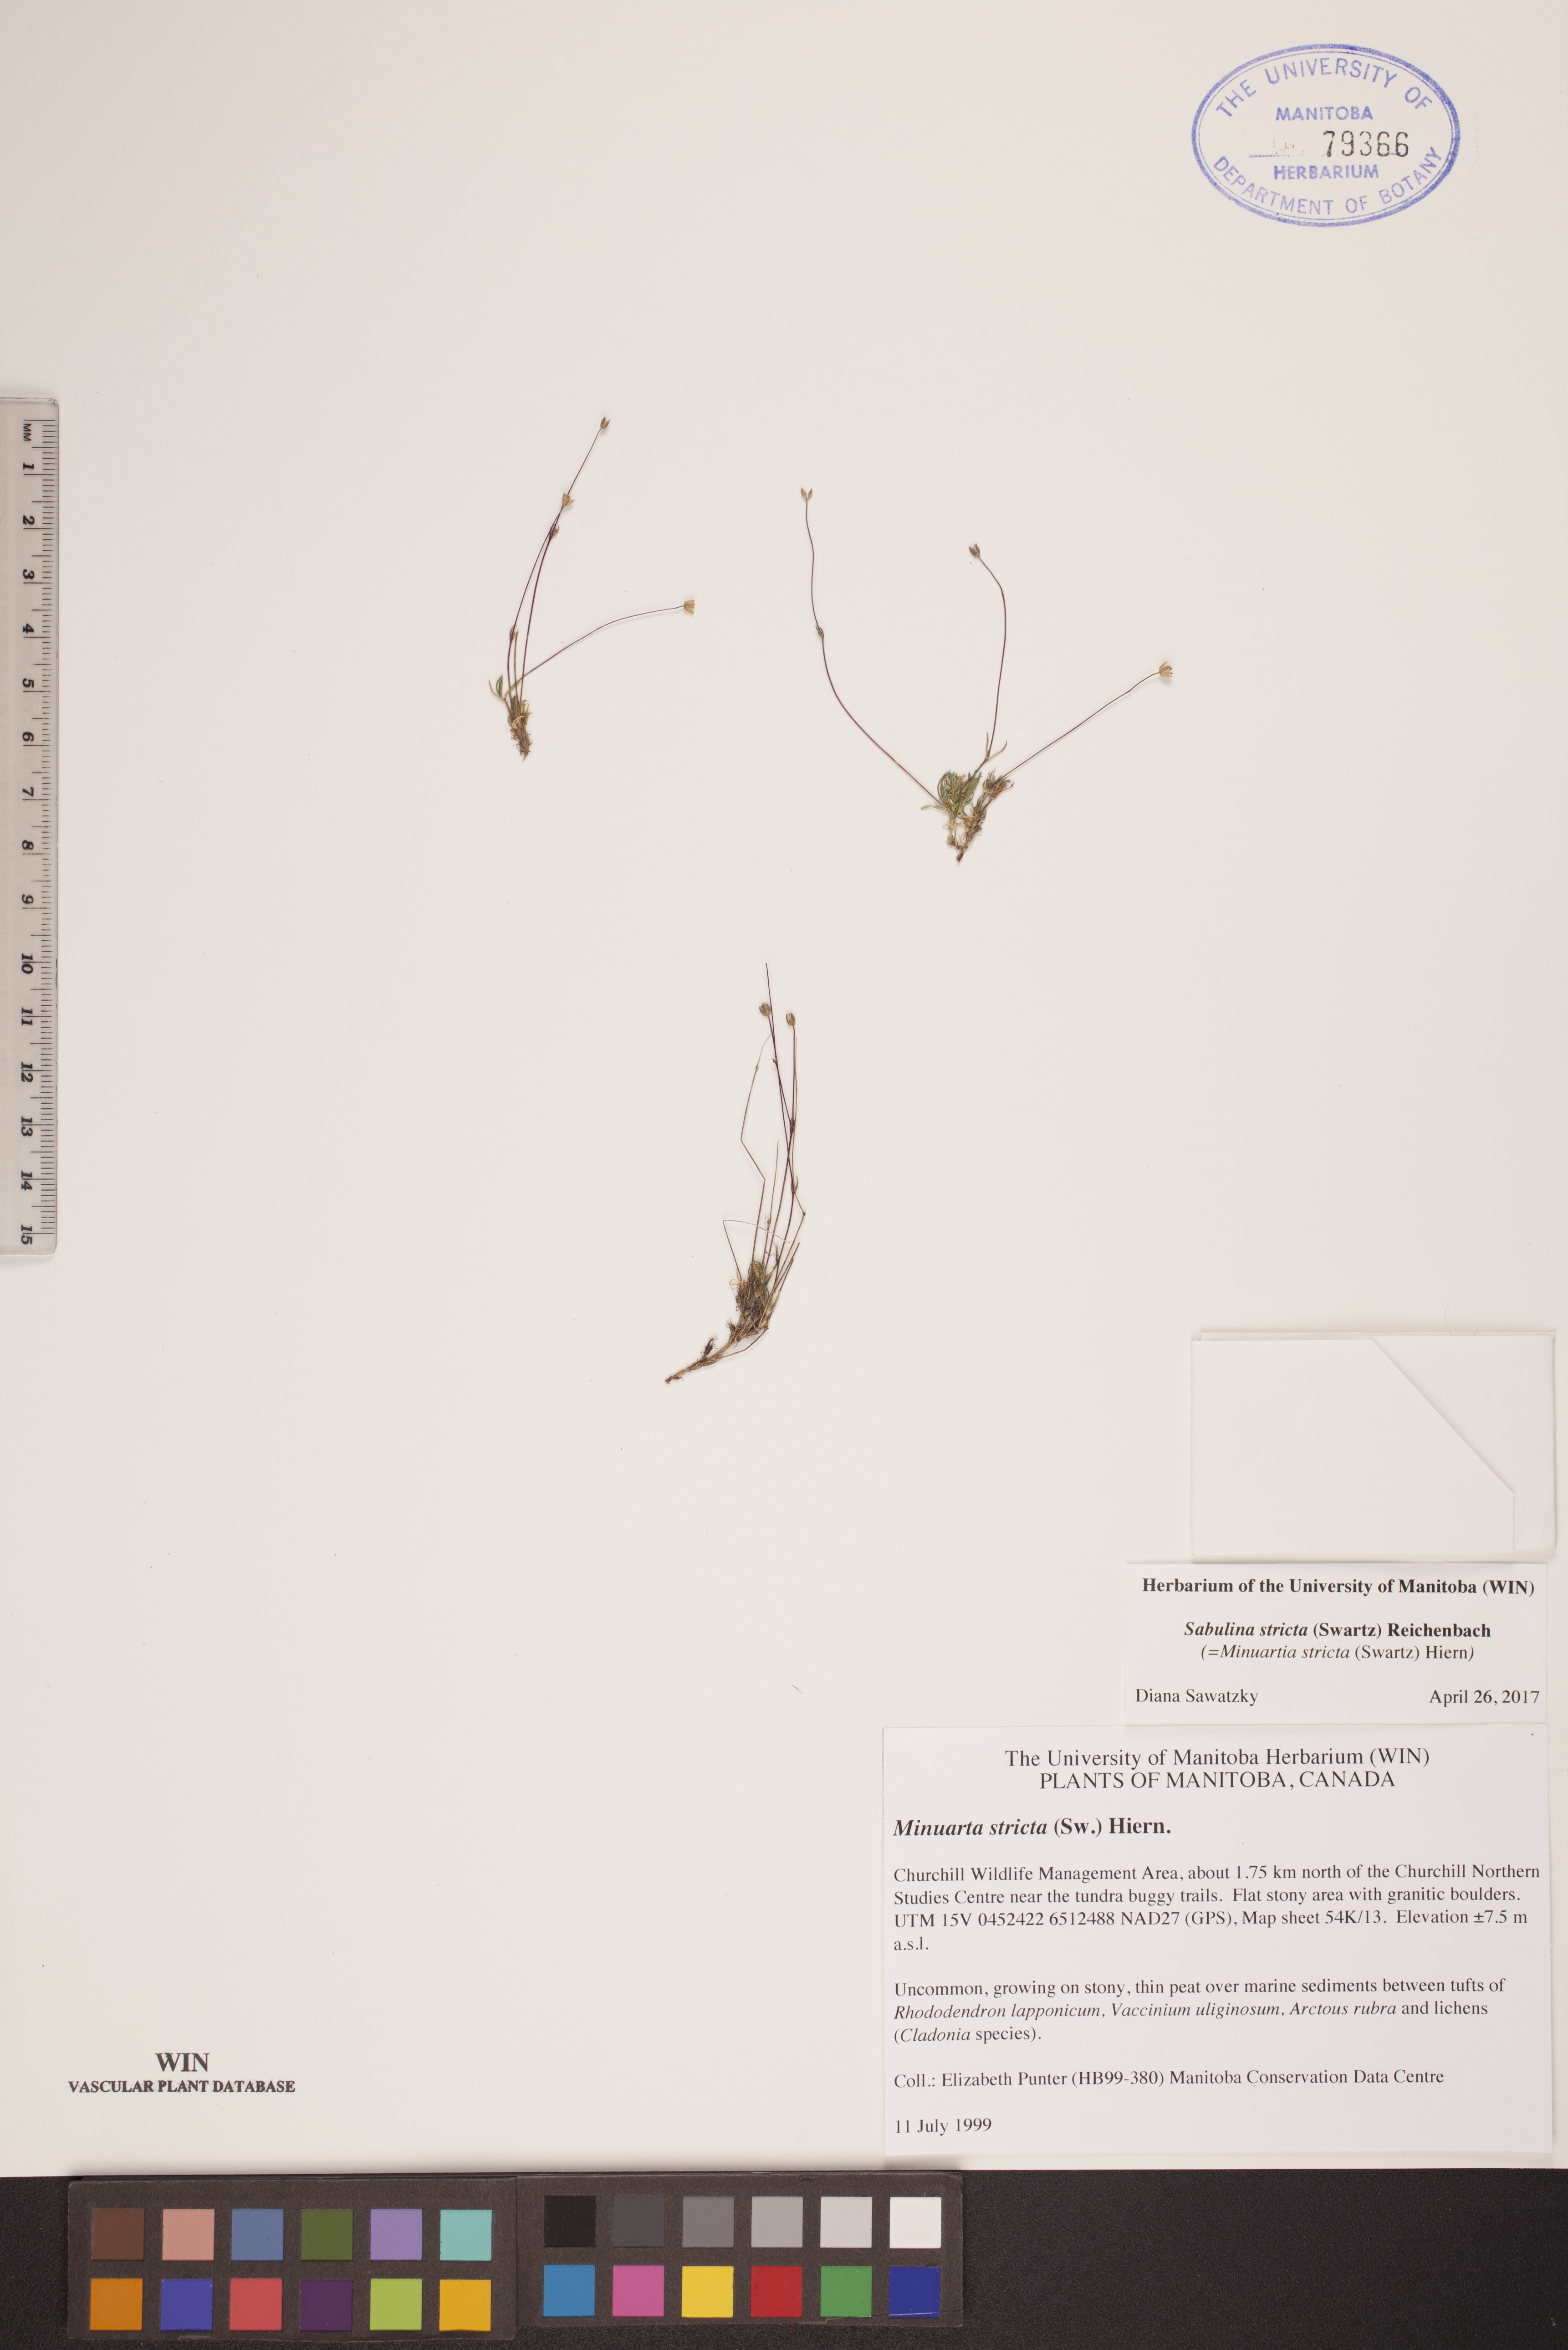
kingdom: Plantae
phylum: Tracheophyta
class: Magnoliopsida
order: Caryophyllales
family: Caryophyllaceae
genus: Sabulina
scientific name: Sabulina stricta
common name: Bog sandwort
